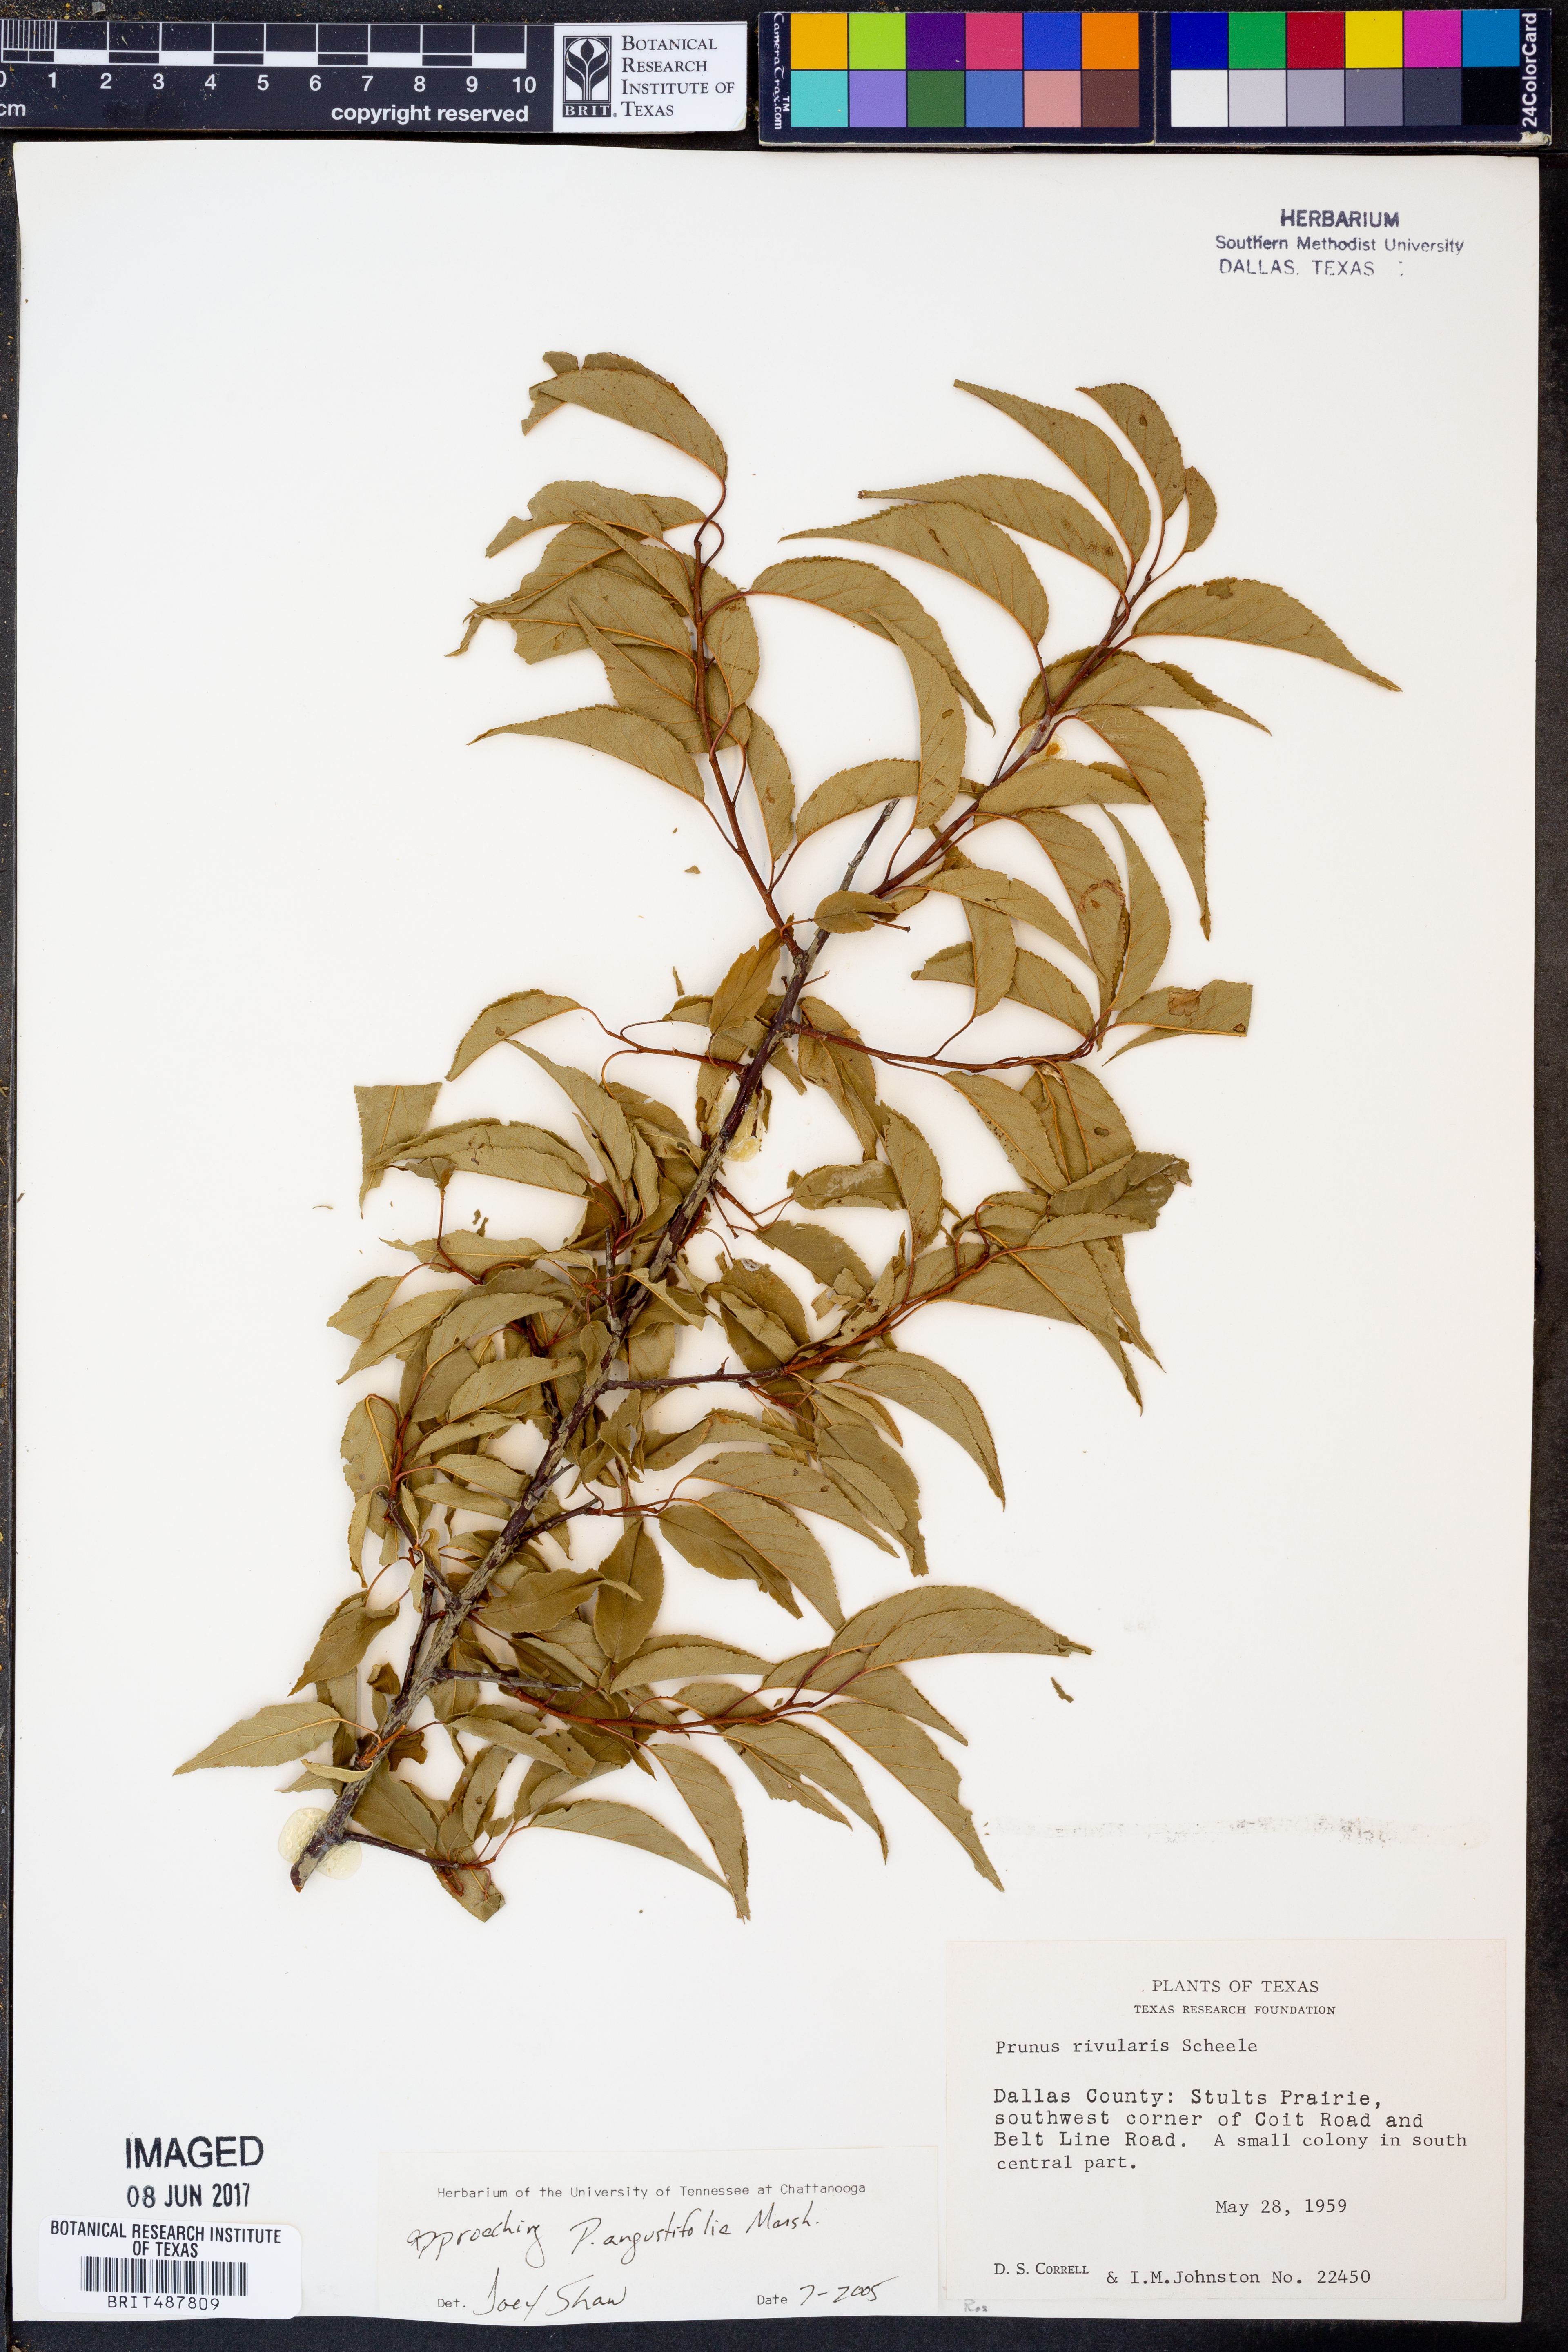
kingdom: Plantae
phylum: Tracheophyta
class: Magnoliopsida
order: Rosales
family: Rosaceae
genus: Prunus
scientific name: Prunus angustifolia
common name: Cherokee plum
